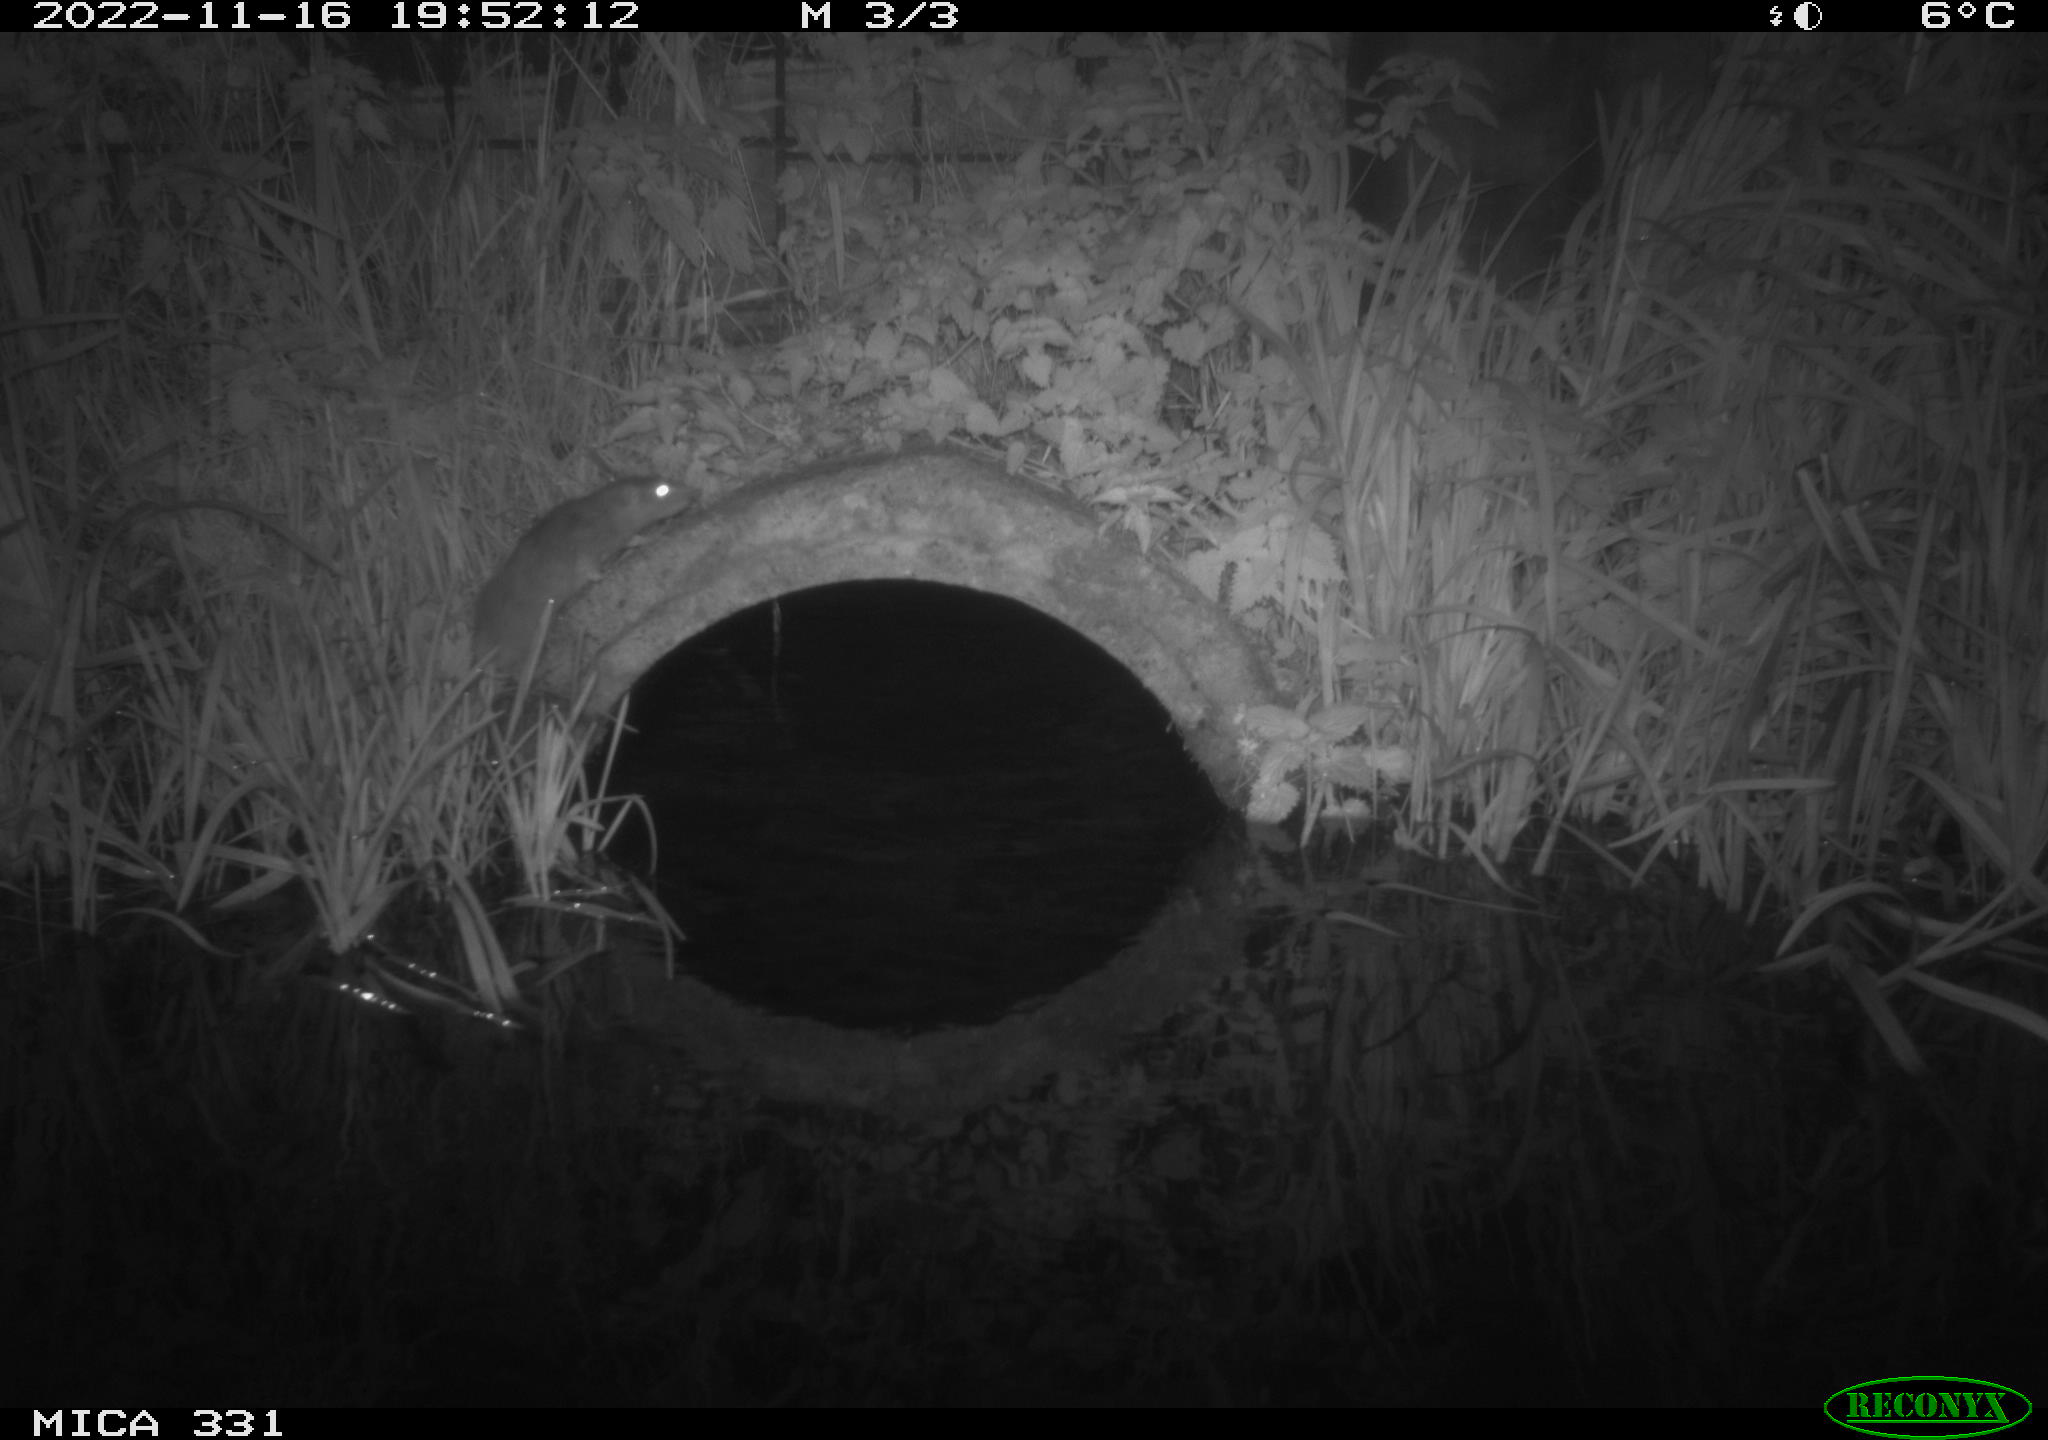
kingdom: Animalia
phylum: Chordata
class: Mammalia
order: Rodentia
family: Muridae
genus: Rattus
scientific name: Rattus norvegicus
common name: Brown rat
